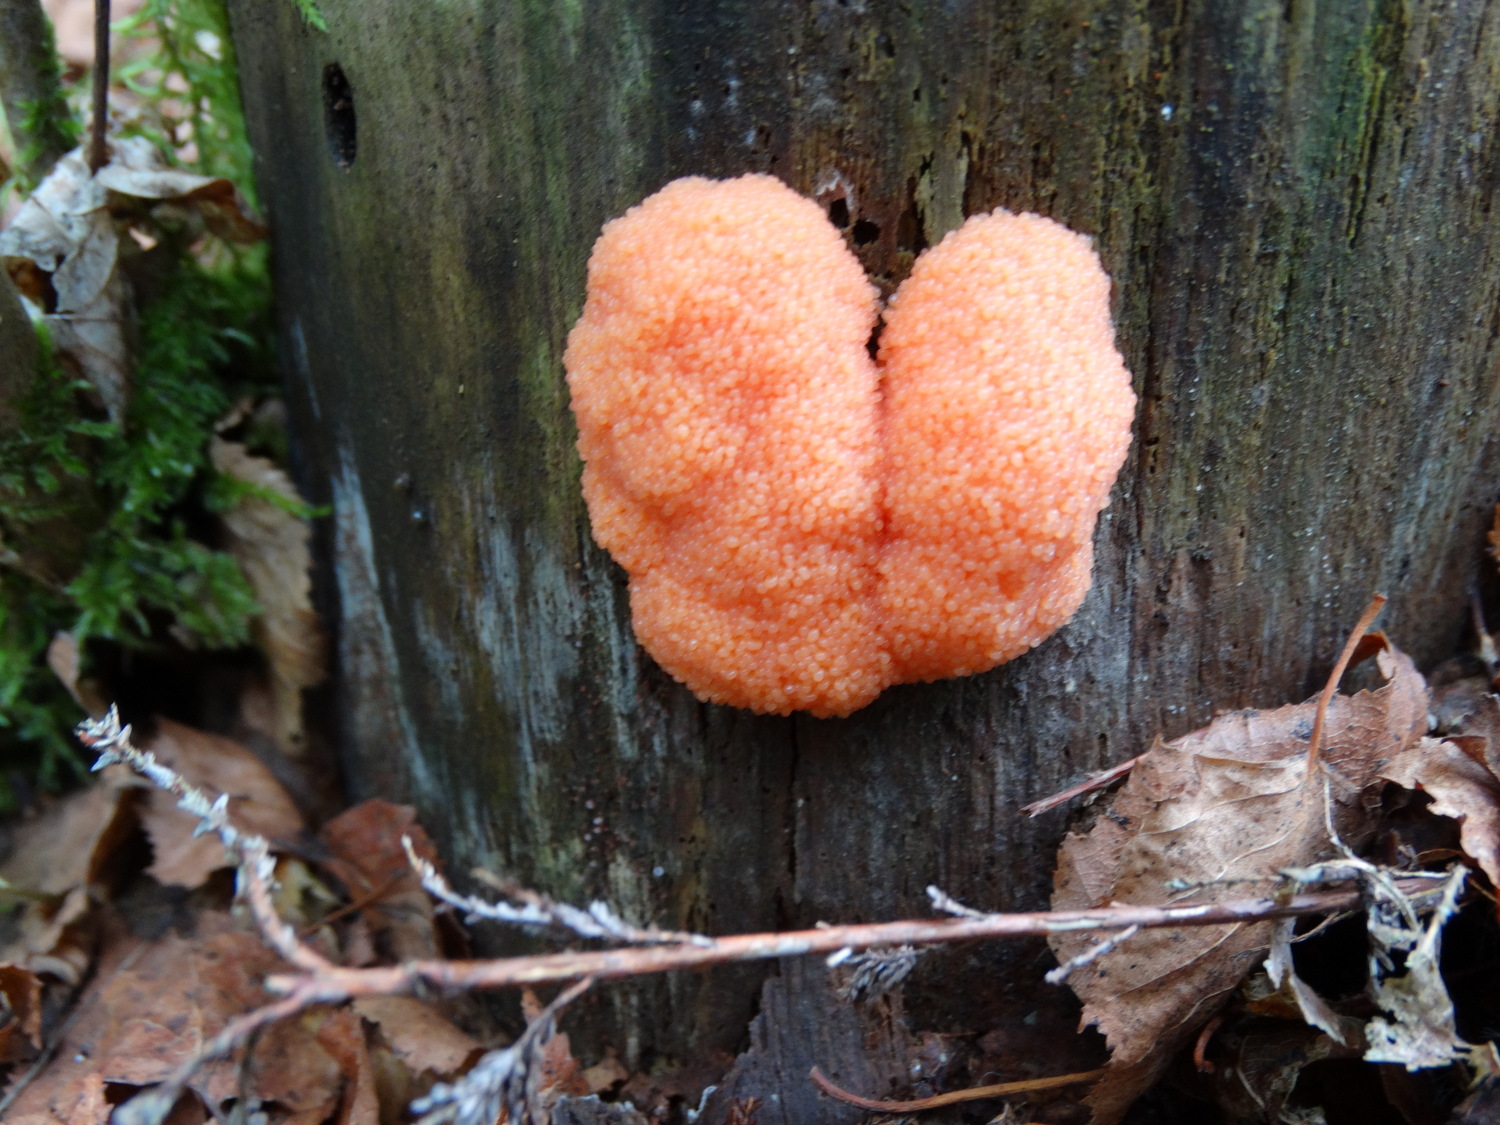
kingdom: Protozoa
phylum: Mycetozoa
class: Myxomycetes
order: Cribrariales
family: Tubiferaceae
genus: Tubifera
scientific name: Tubifera ferruginosa
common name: kanel-støvrør
